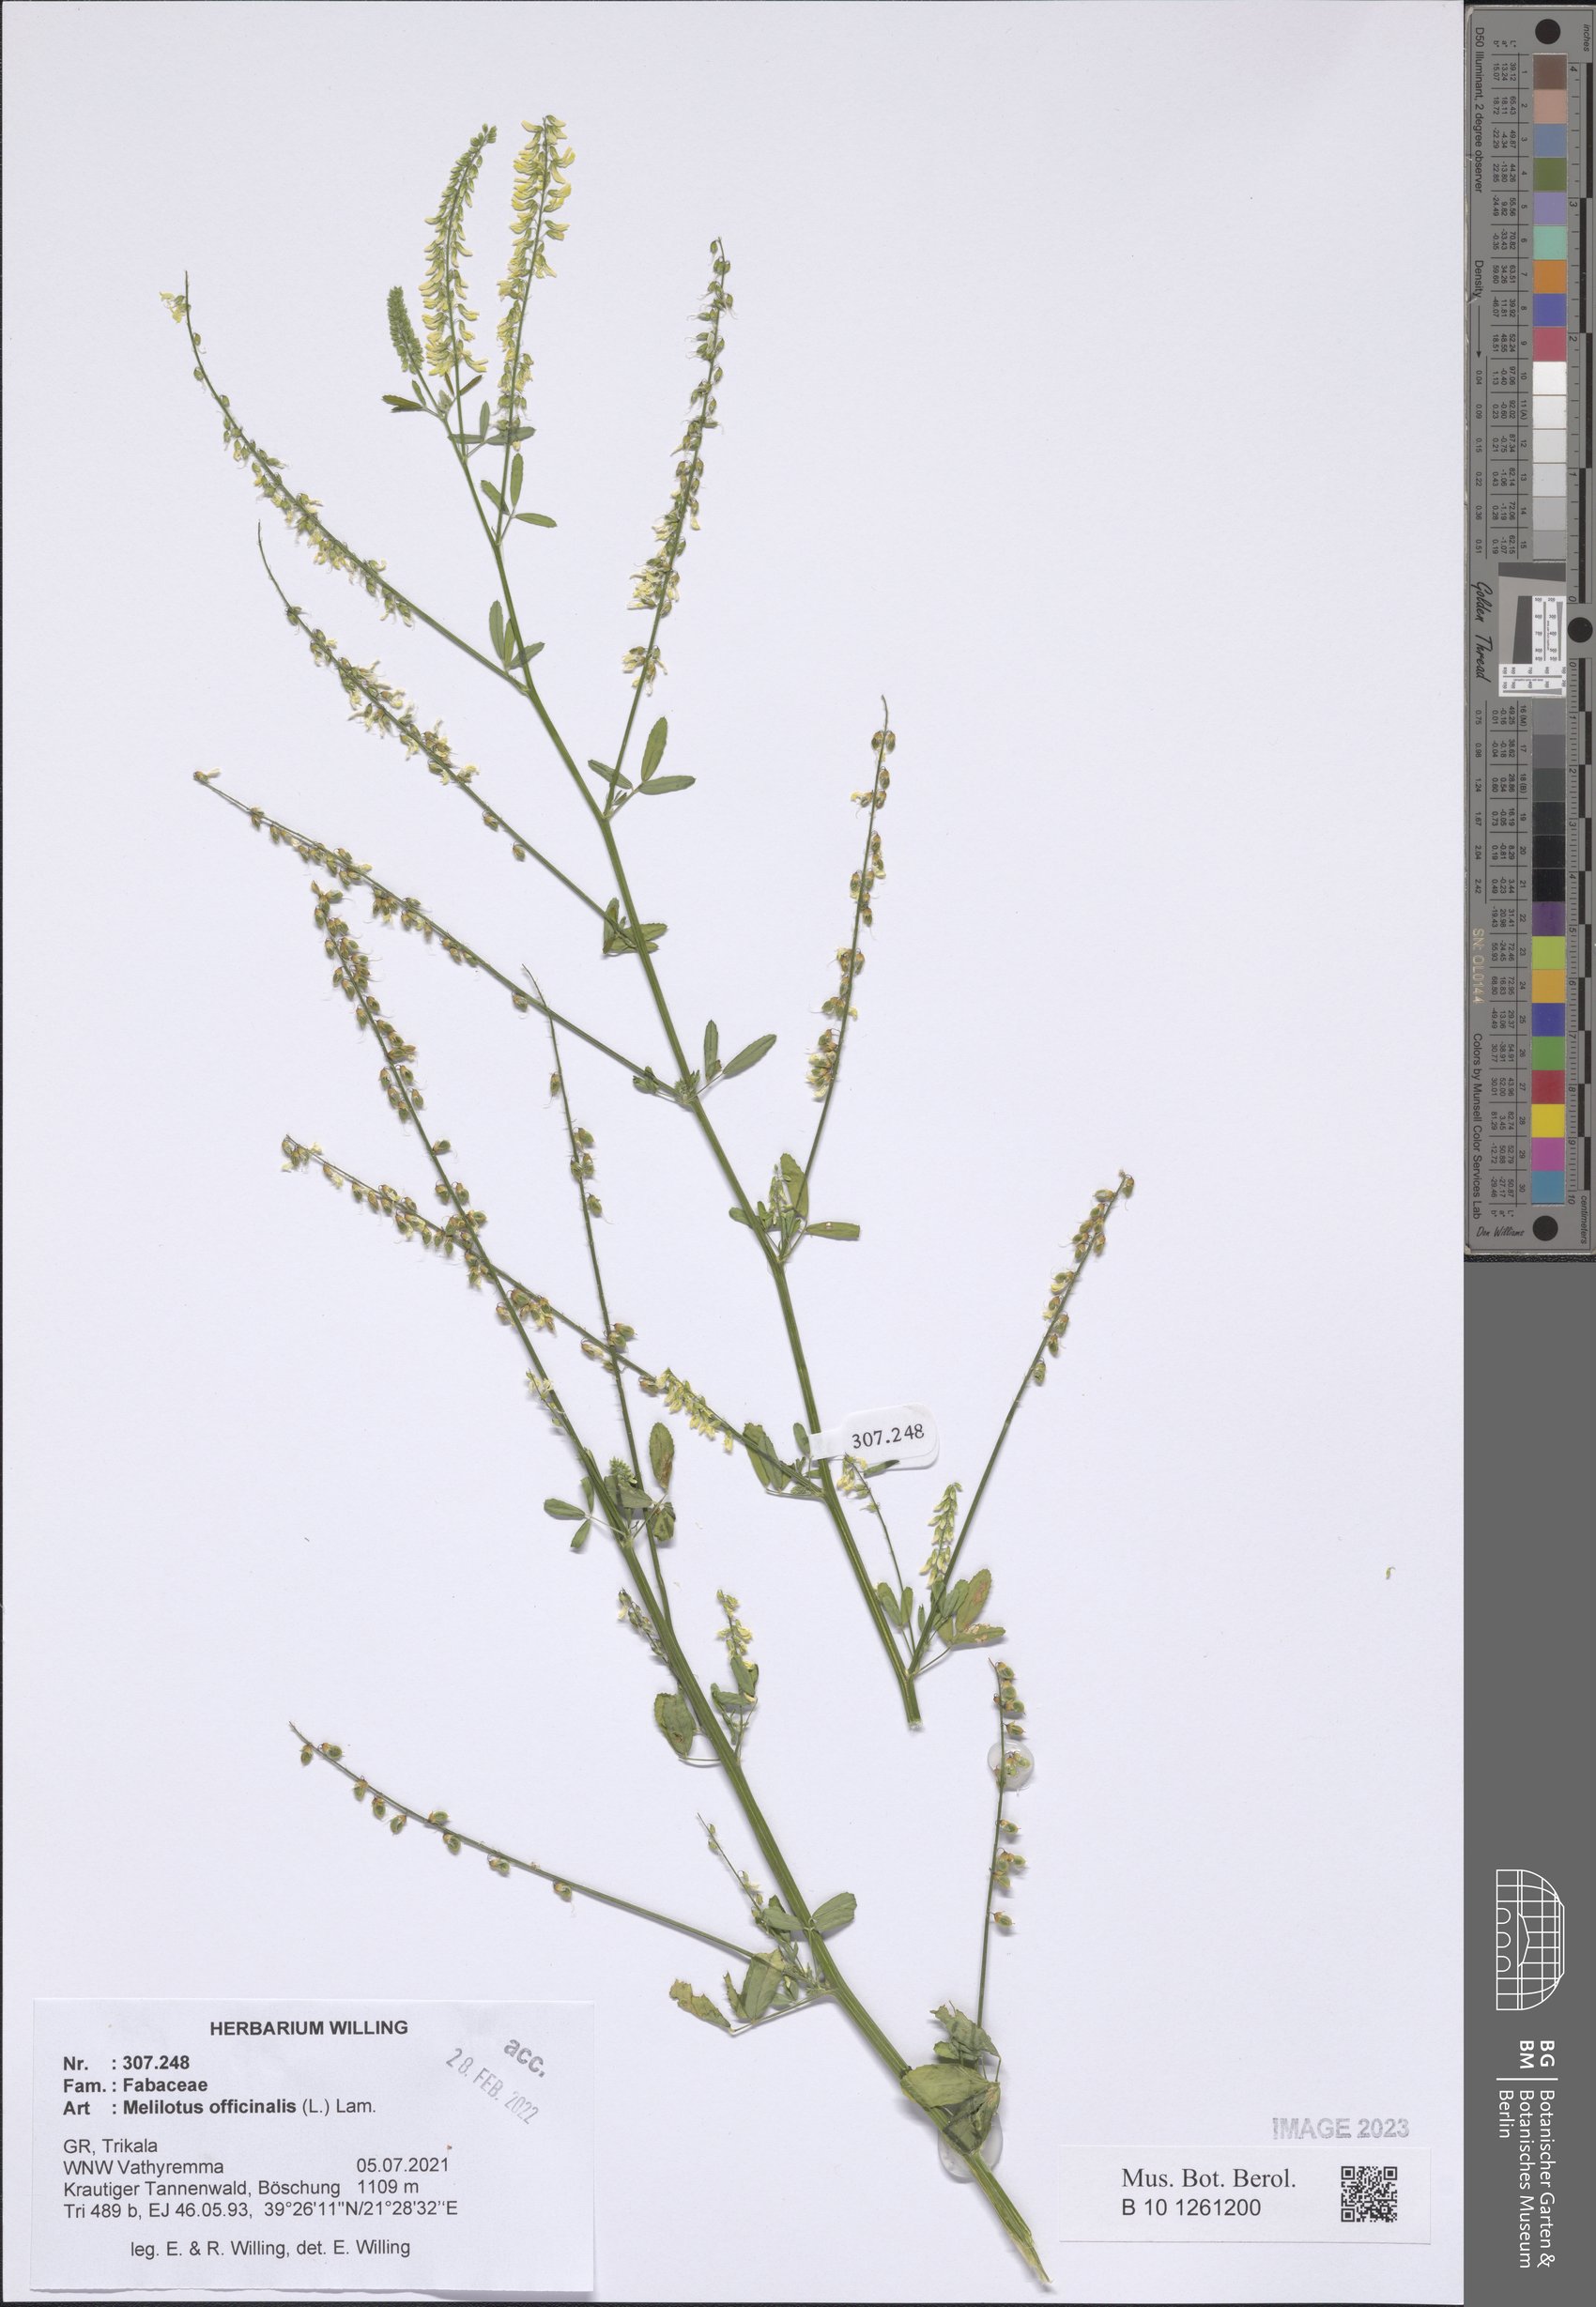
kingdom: Plantae
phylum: Tracheophyta
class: Magnoliopsida
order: Fabales
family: Fabaceae
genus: Melilotus
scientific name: Melilotus officinalis
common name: Sweetclover
